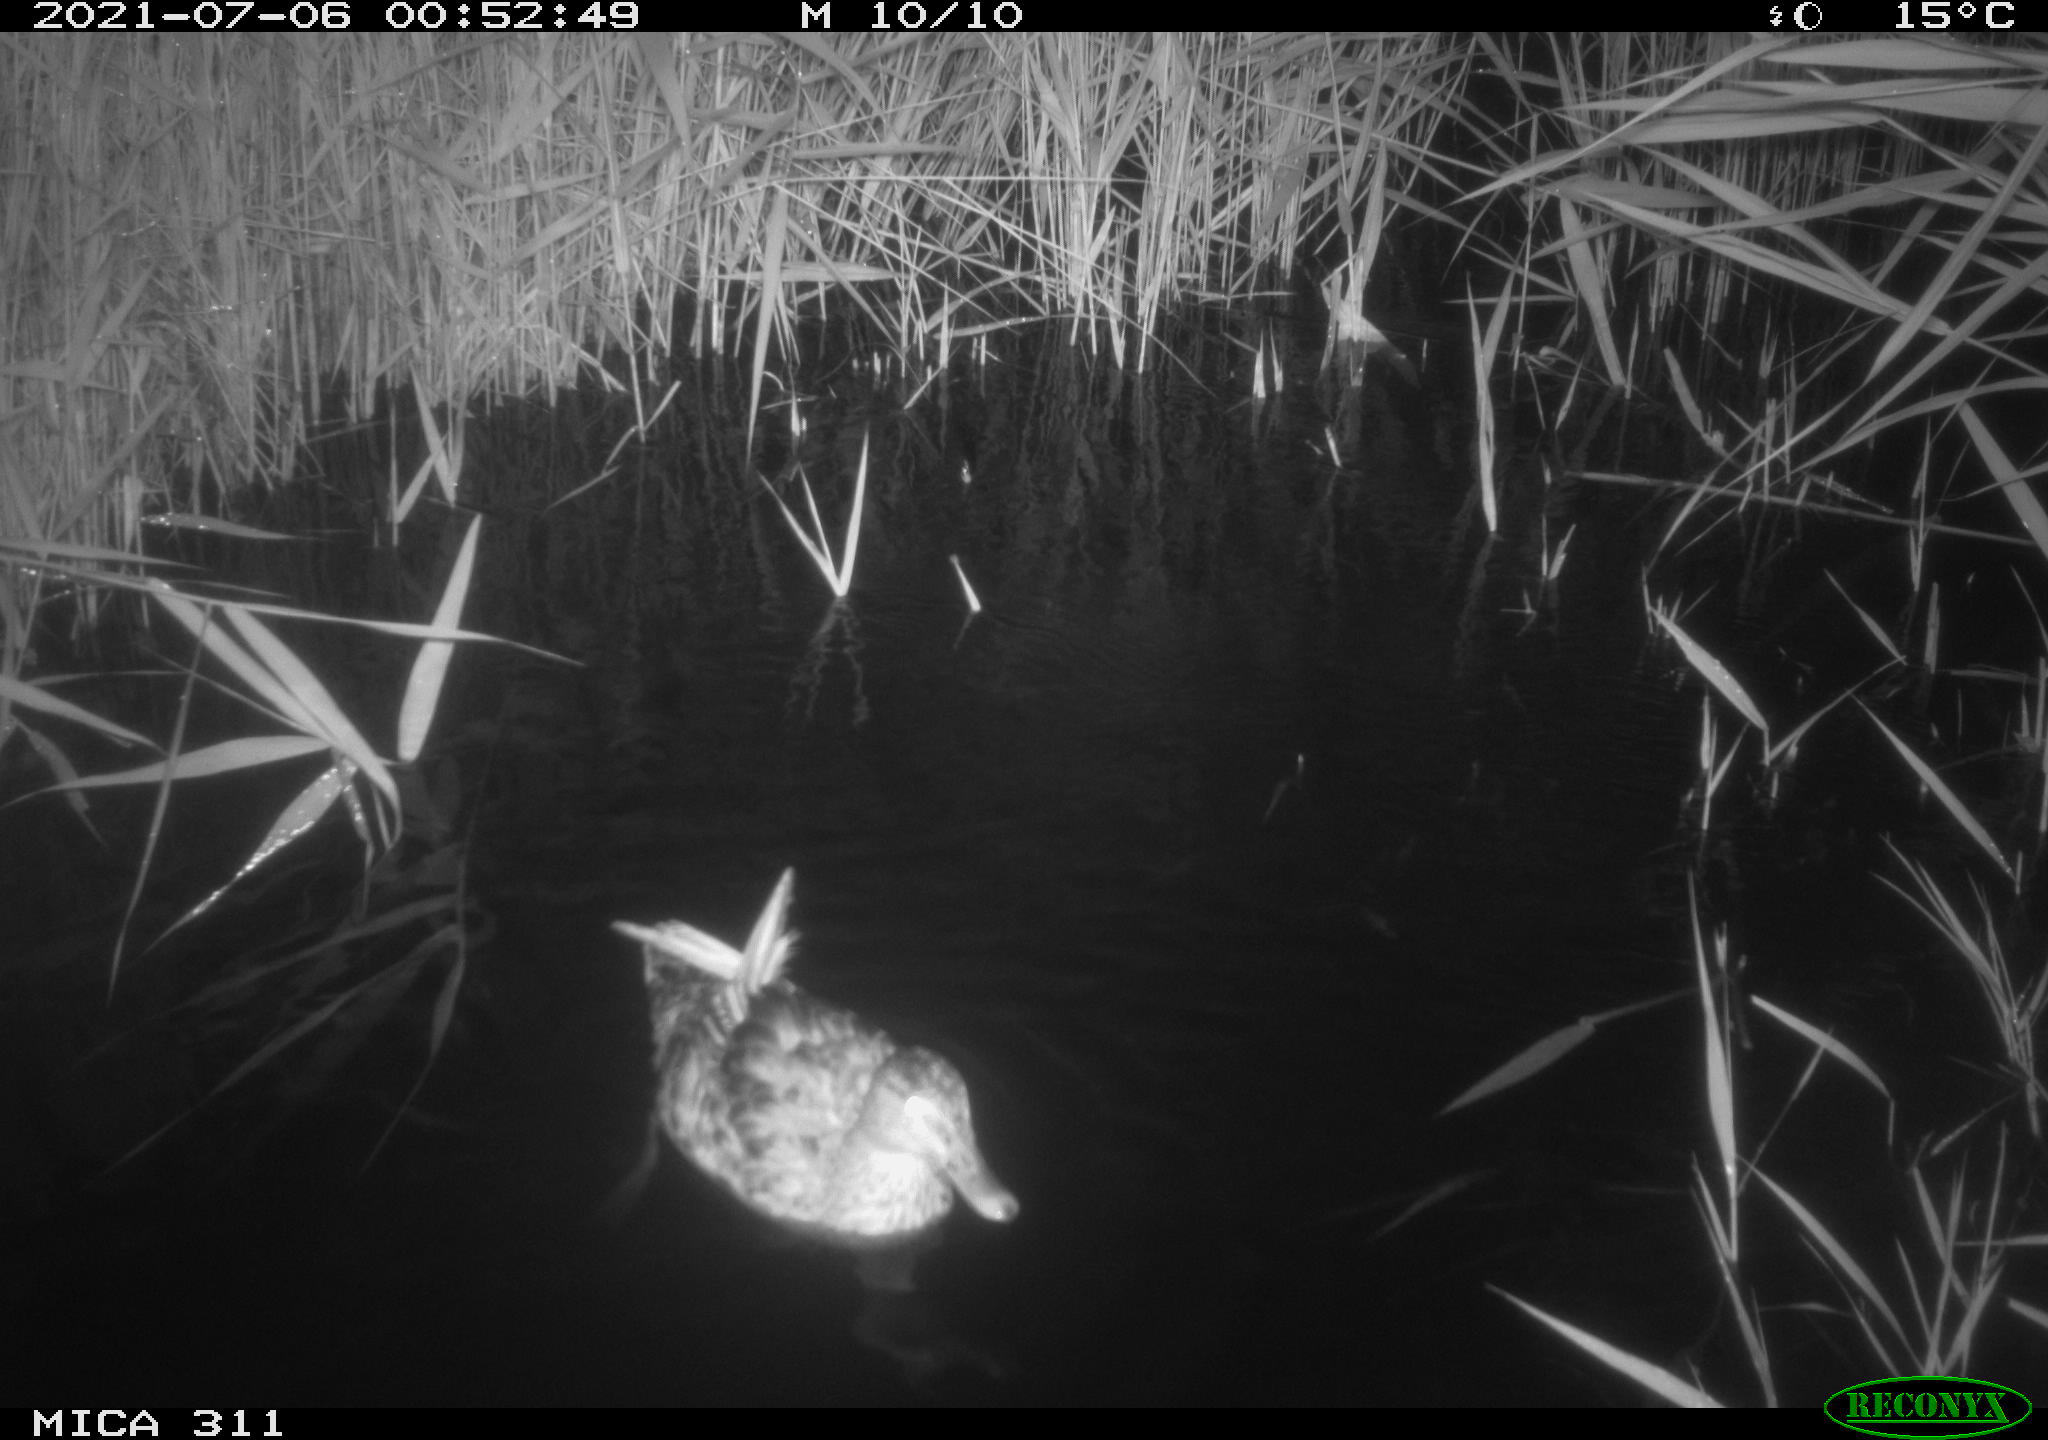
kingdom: Animalia
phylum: Chordata
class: Aves
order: Anseriformes
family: Anatidae
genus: Anas
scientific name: Anas
